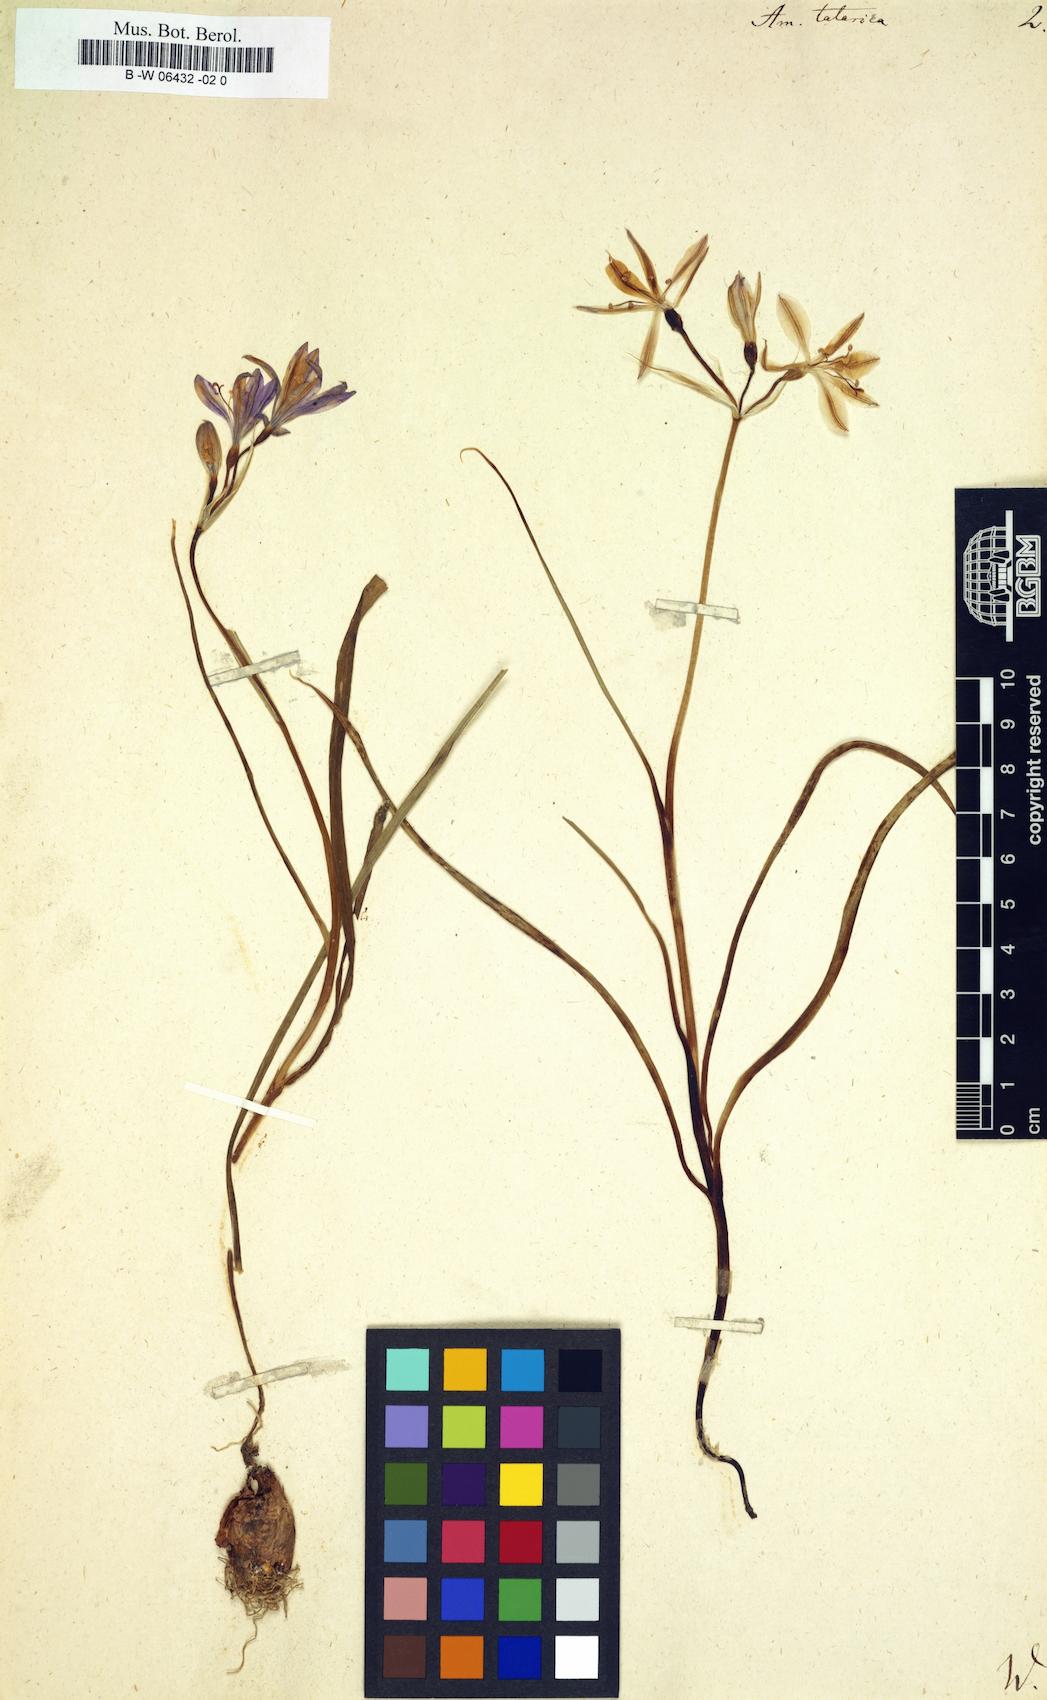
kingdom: Plantae
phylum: Tracheophyta
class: Liliopsida
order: Asparagales
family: Ixioliriaceae
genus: Ixiolirion
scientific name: Ixiolirion tataricum
